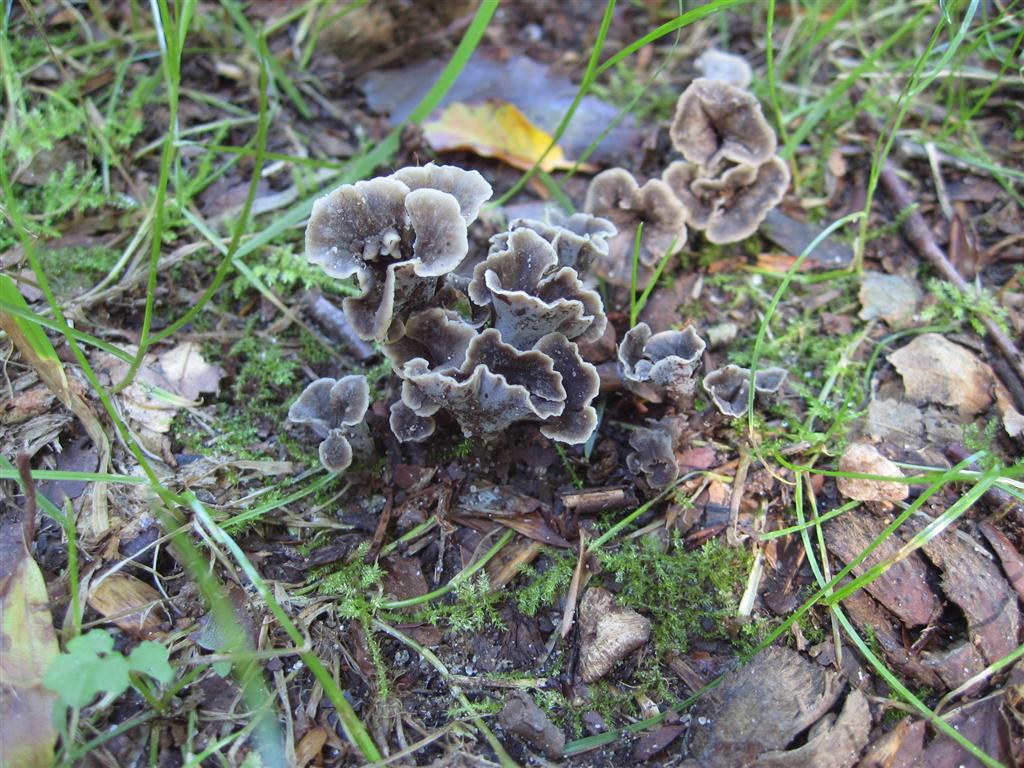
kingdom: Fungi
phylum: Basidiomycota
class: Agaricomycetes
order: Cantharellales
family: Hydnaceae
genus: Craterellus
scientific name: Craterellus undulatus
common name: liden kantarel
